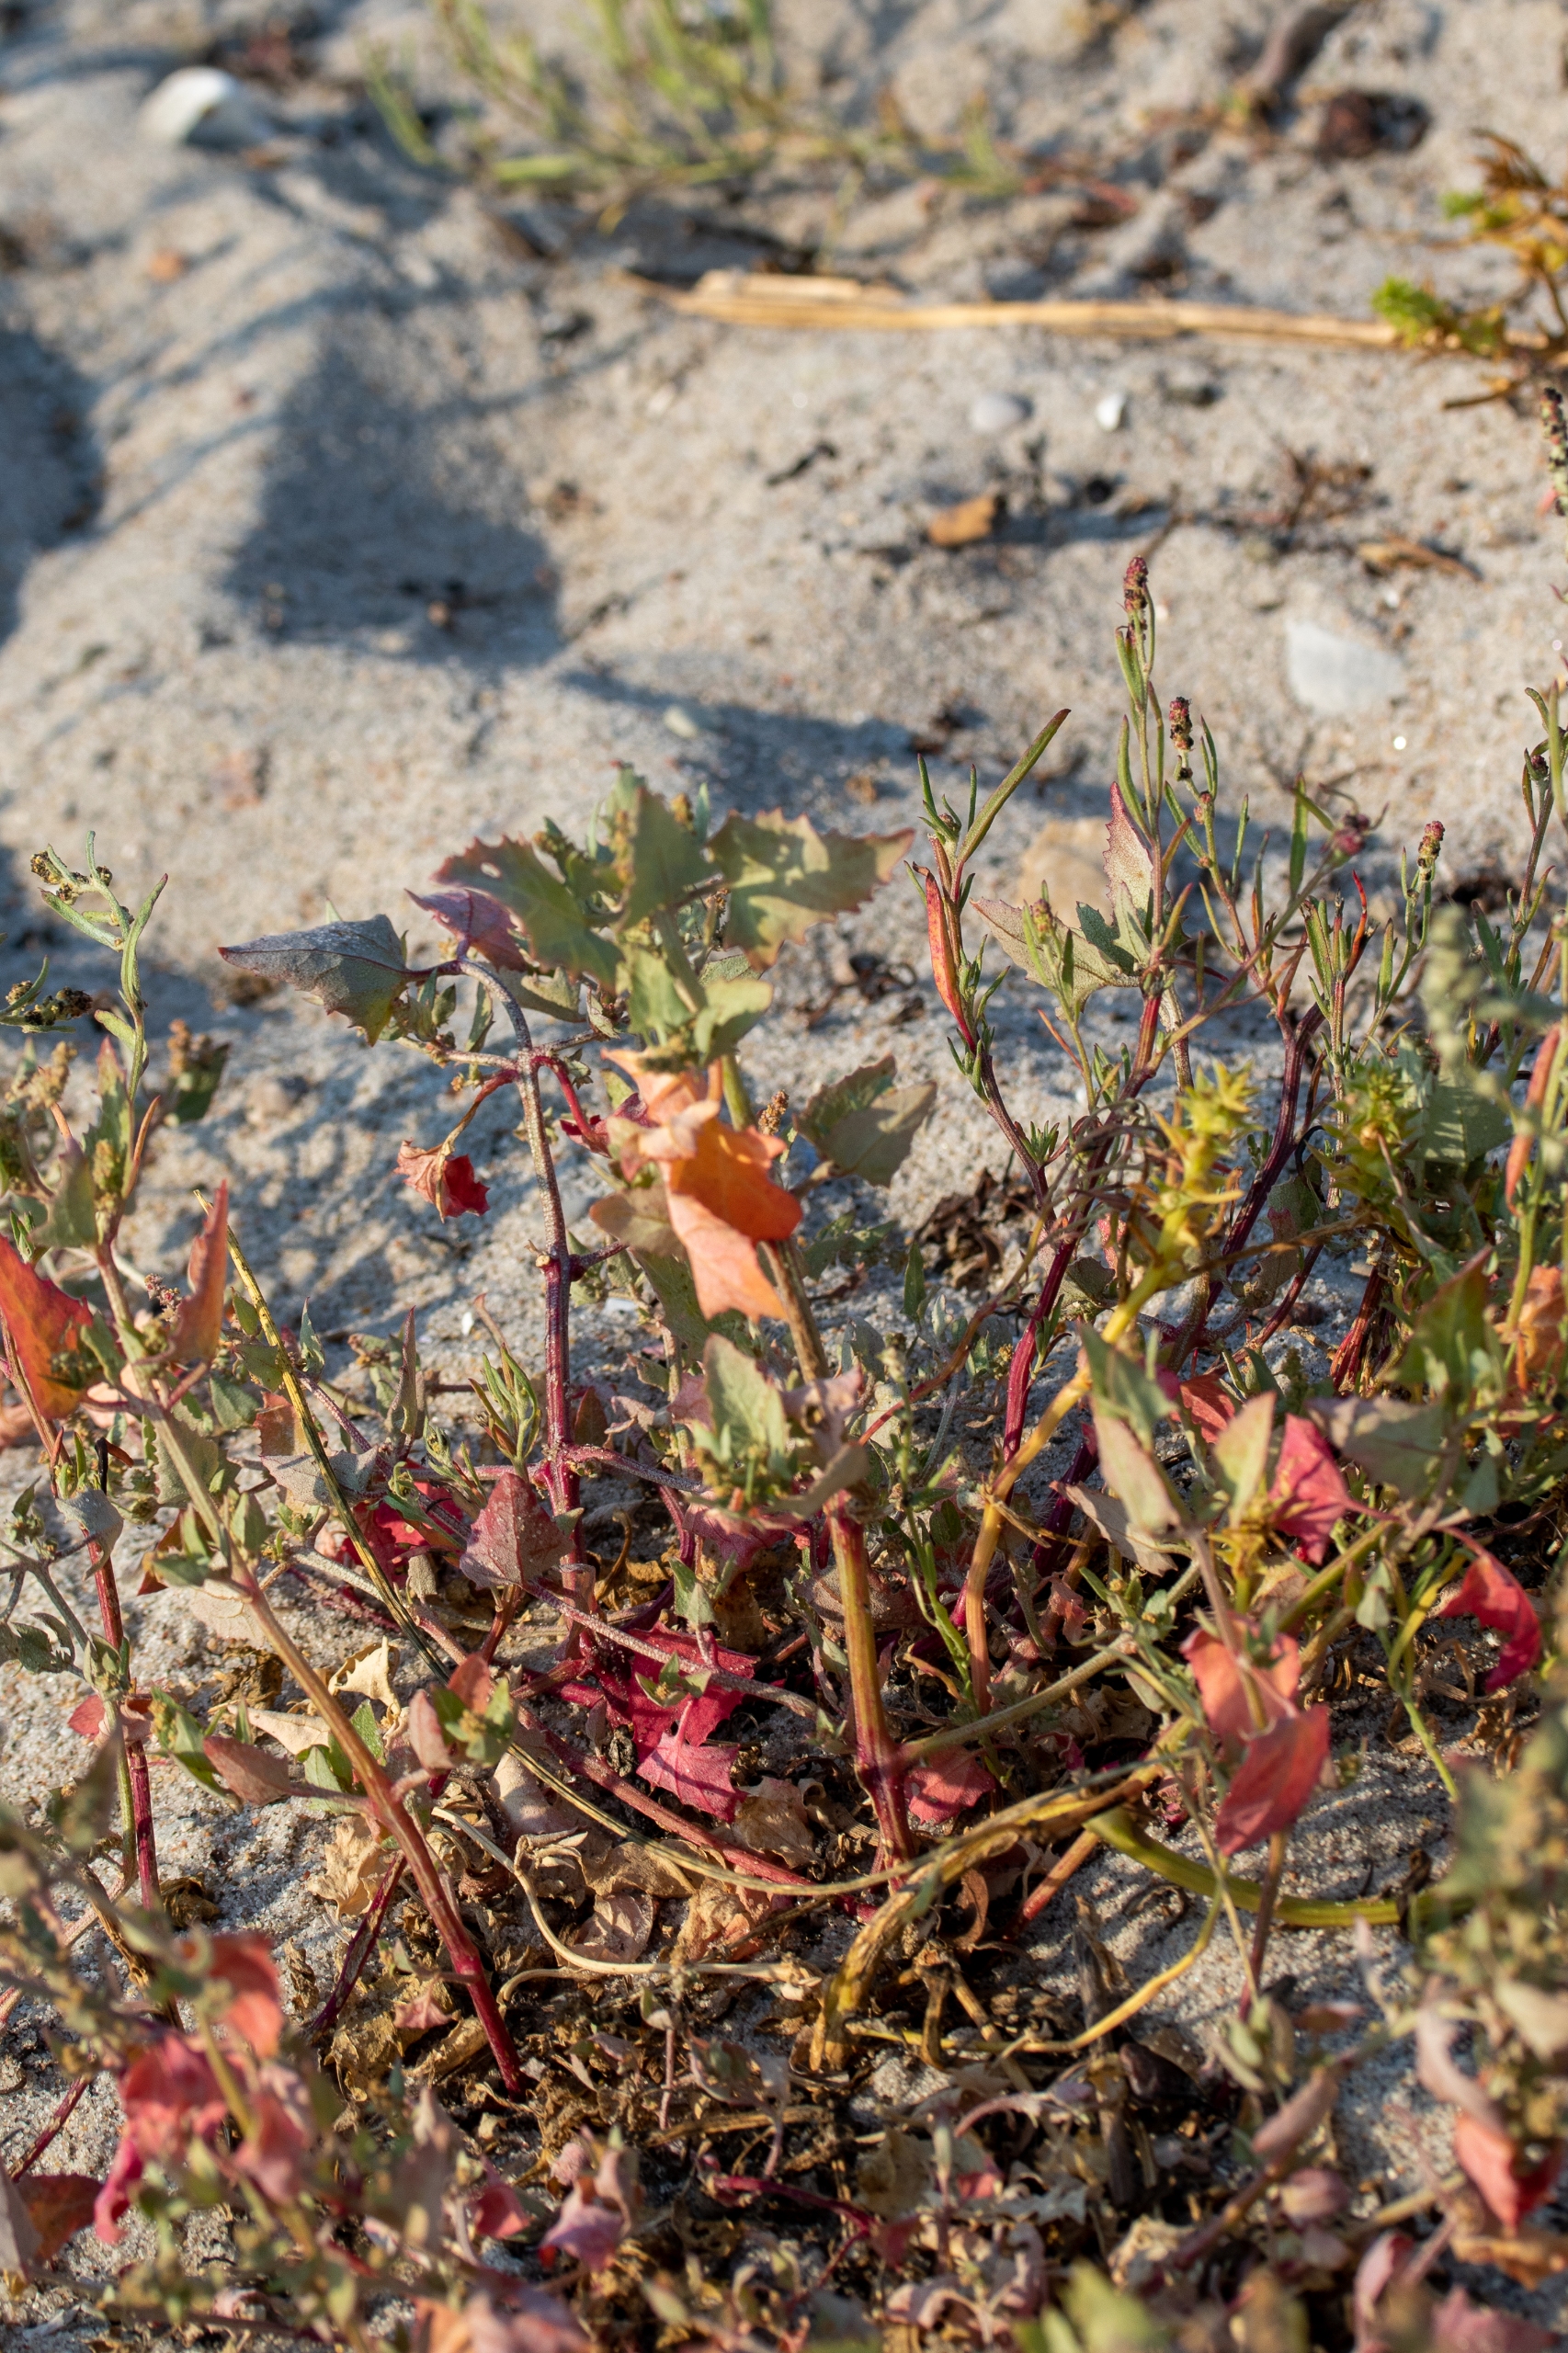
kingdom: Plantae
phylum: Tracheophyta
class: Magnoliopsida
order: Caryophyllales
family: Amaranthaceae
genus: Atriplex
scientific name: Atriplex
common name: Mældeslægten
